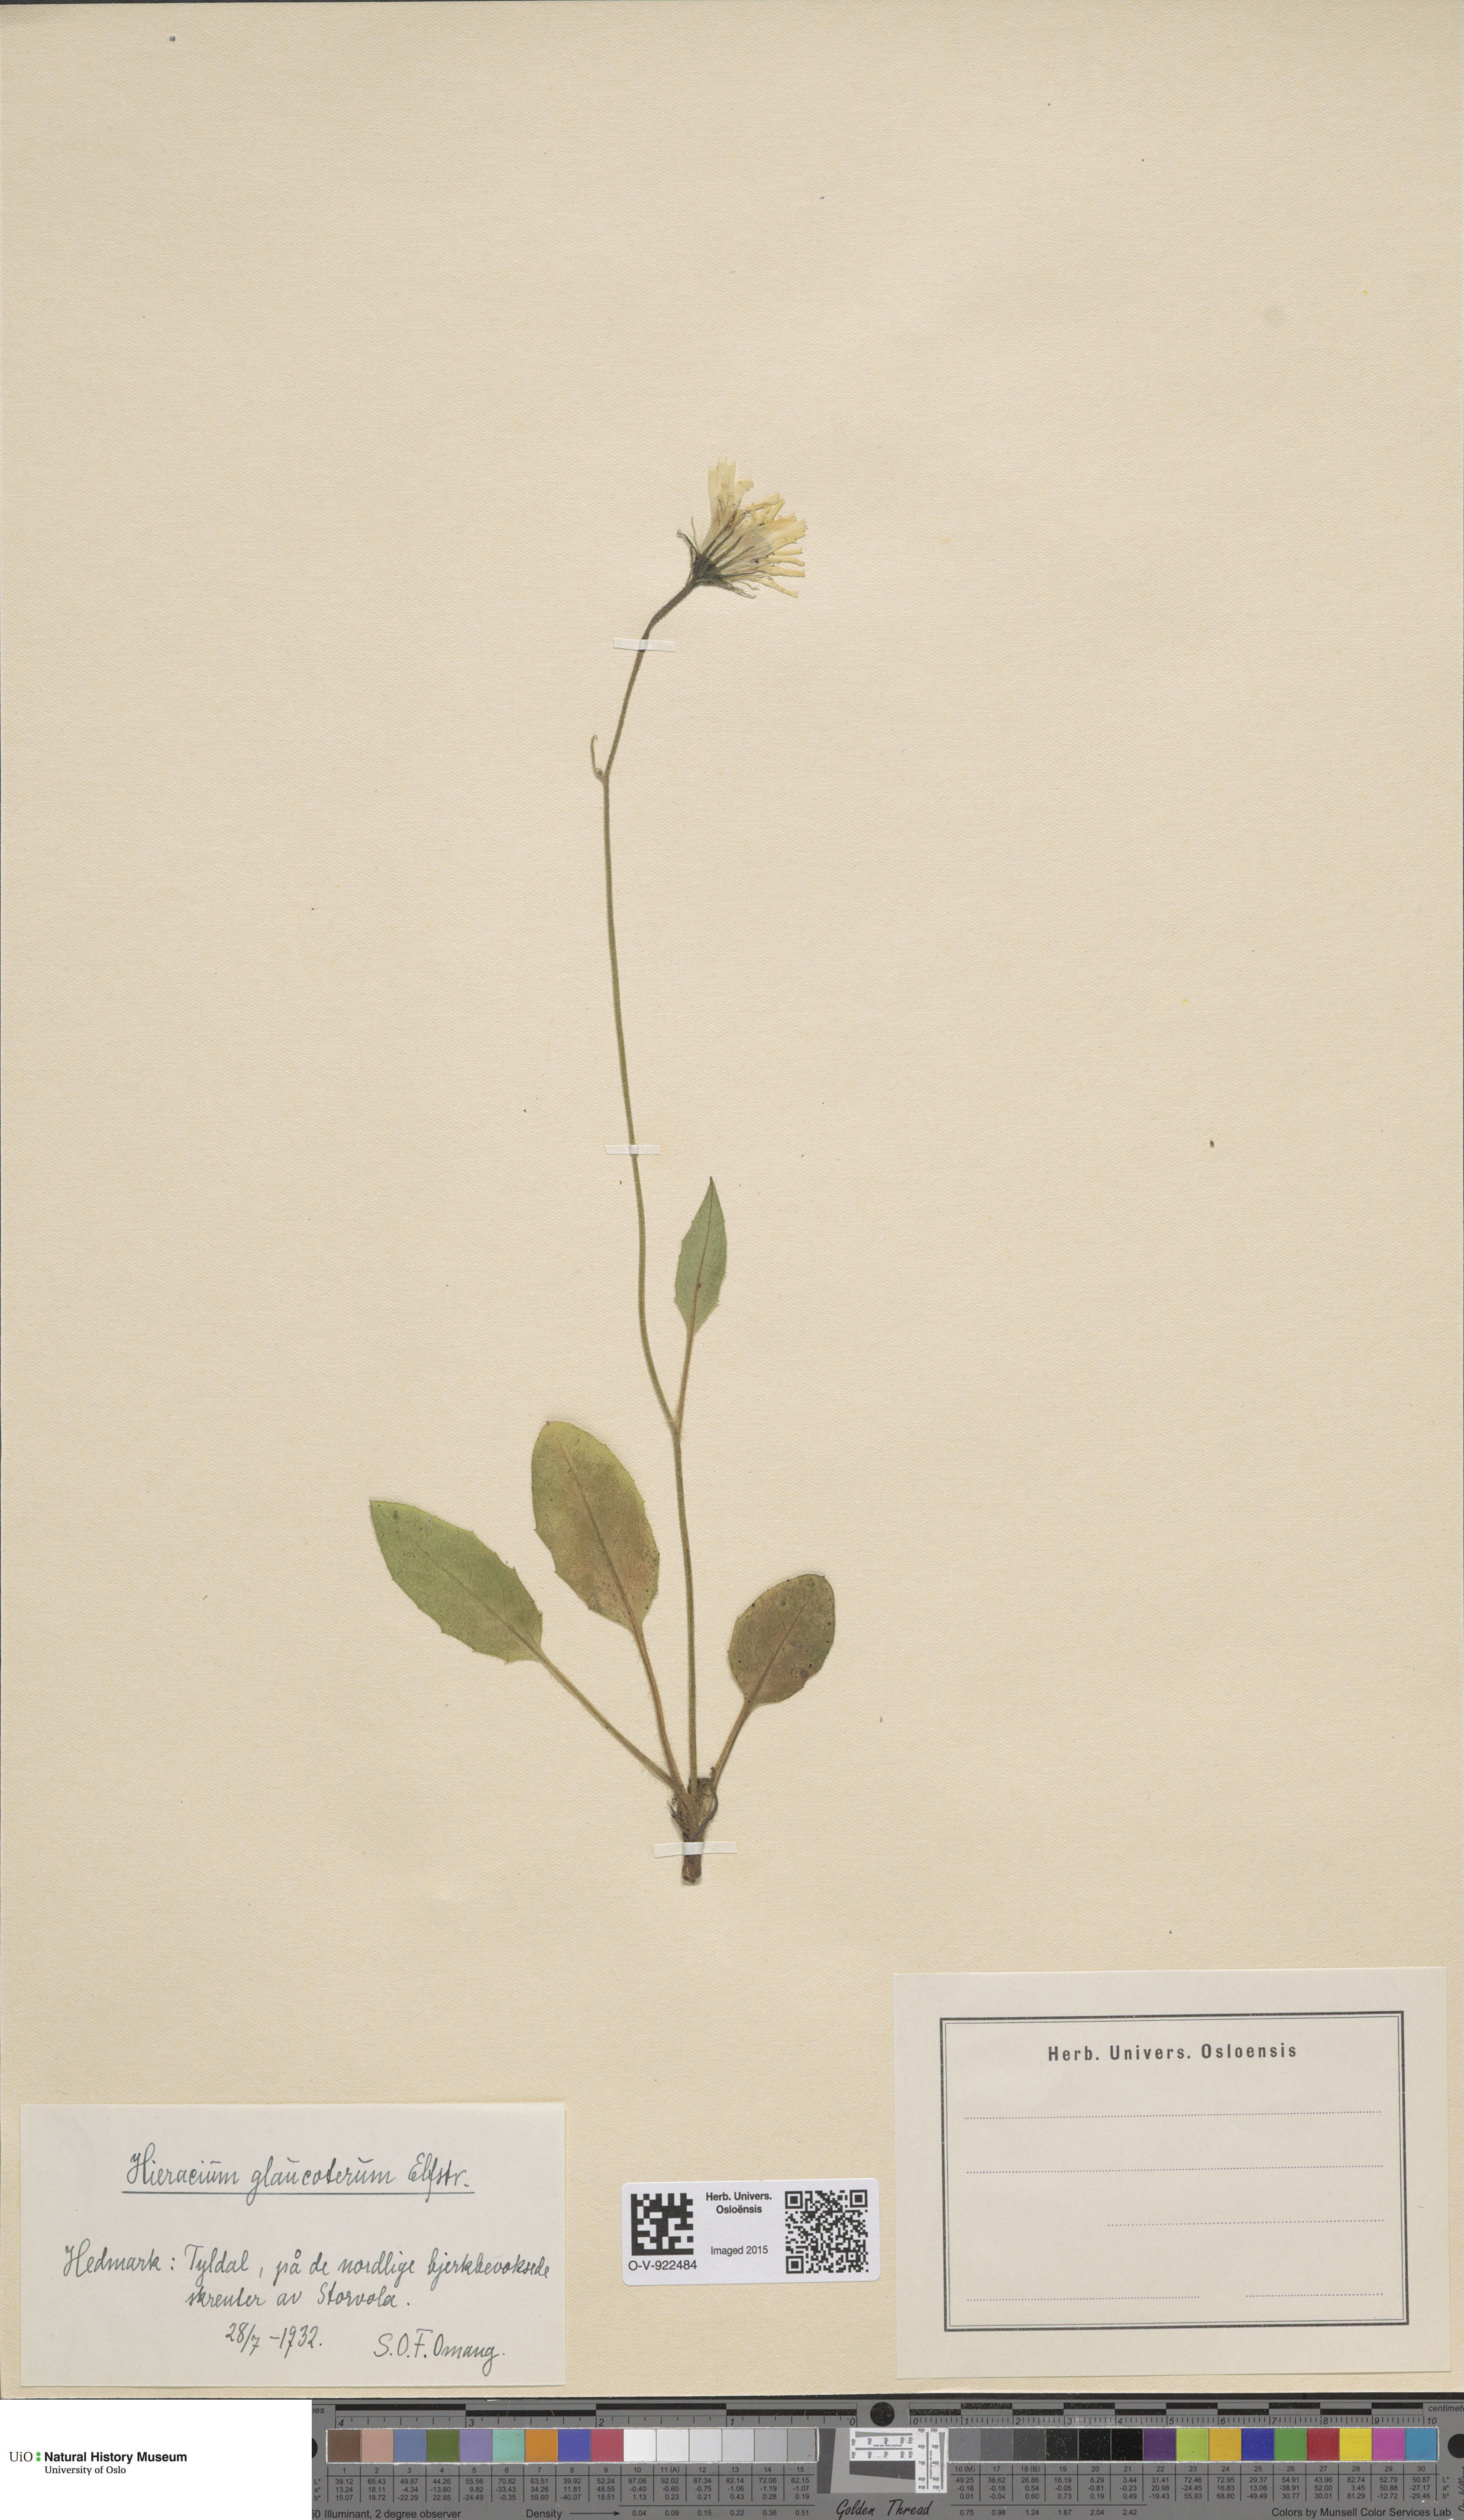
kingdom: Plantae
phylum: Tracheophyta
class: Magnoliopsida
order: Asterales
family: Asteraceae
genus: Hieracium
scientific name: Hieracium
